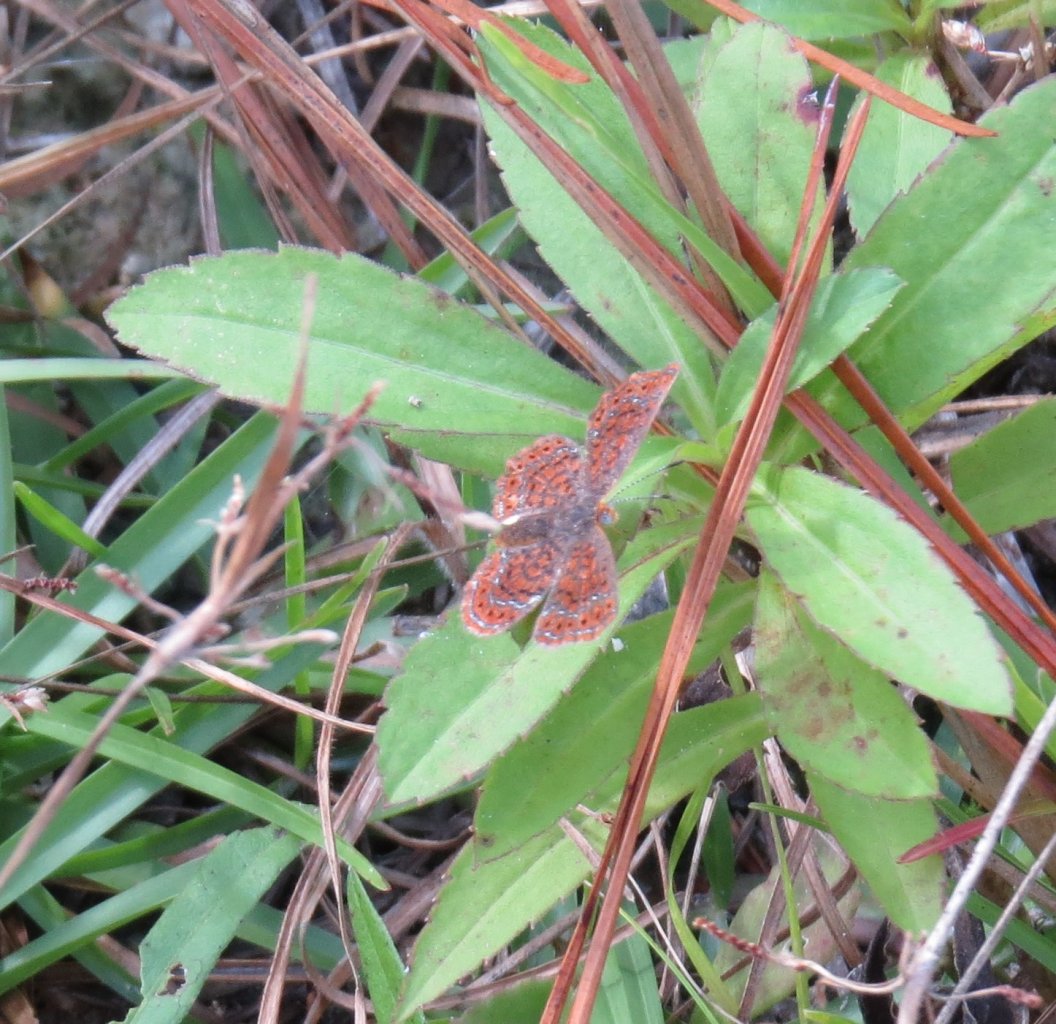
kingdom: Animalia
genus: Calephelis
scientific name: Calephelis virginiensis
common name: Little Metalmark
